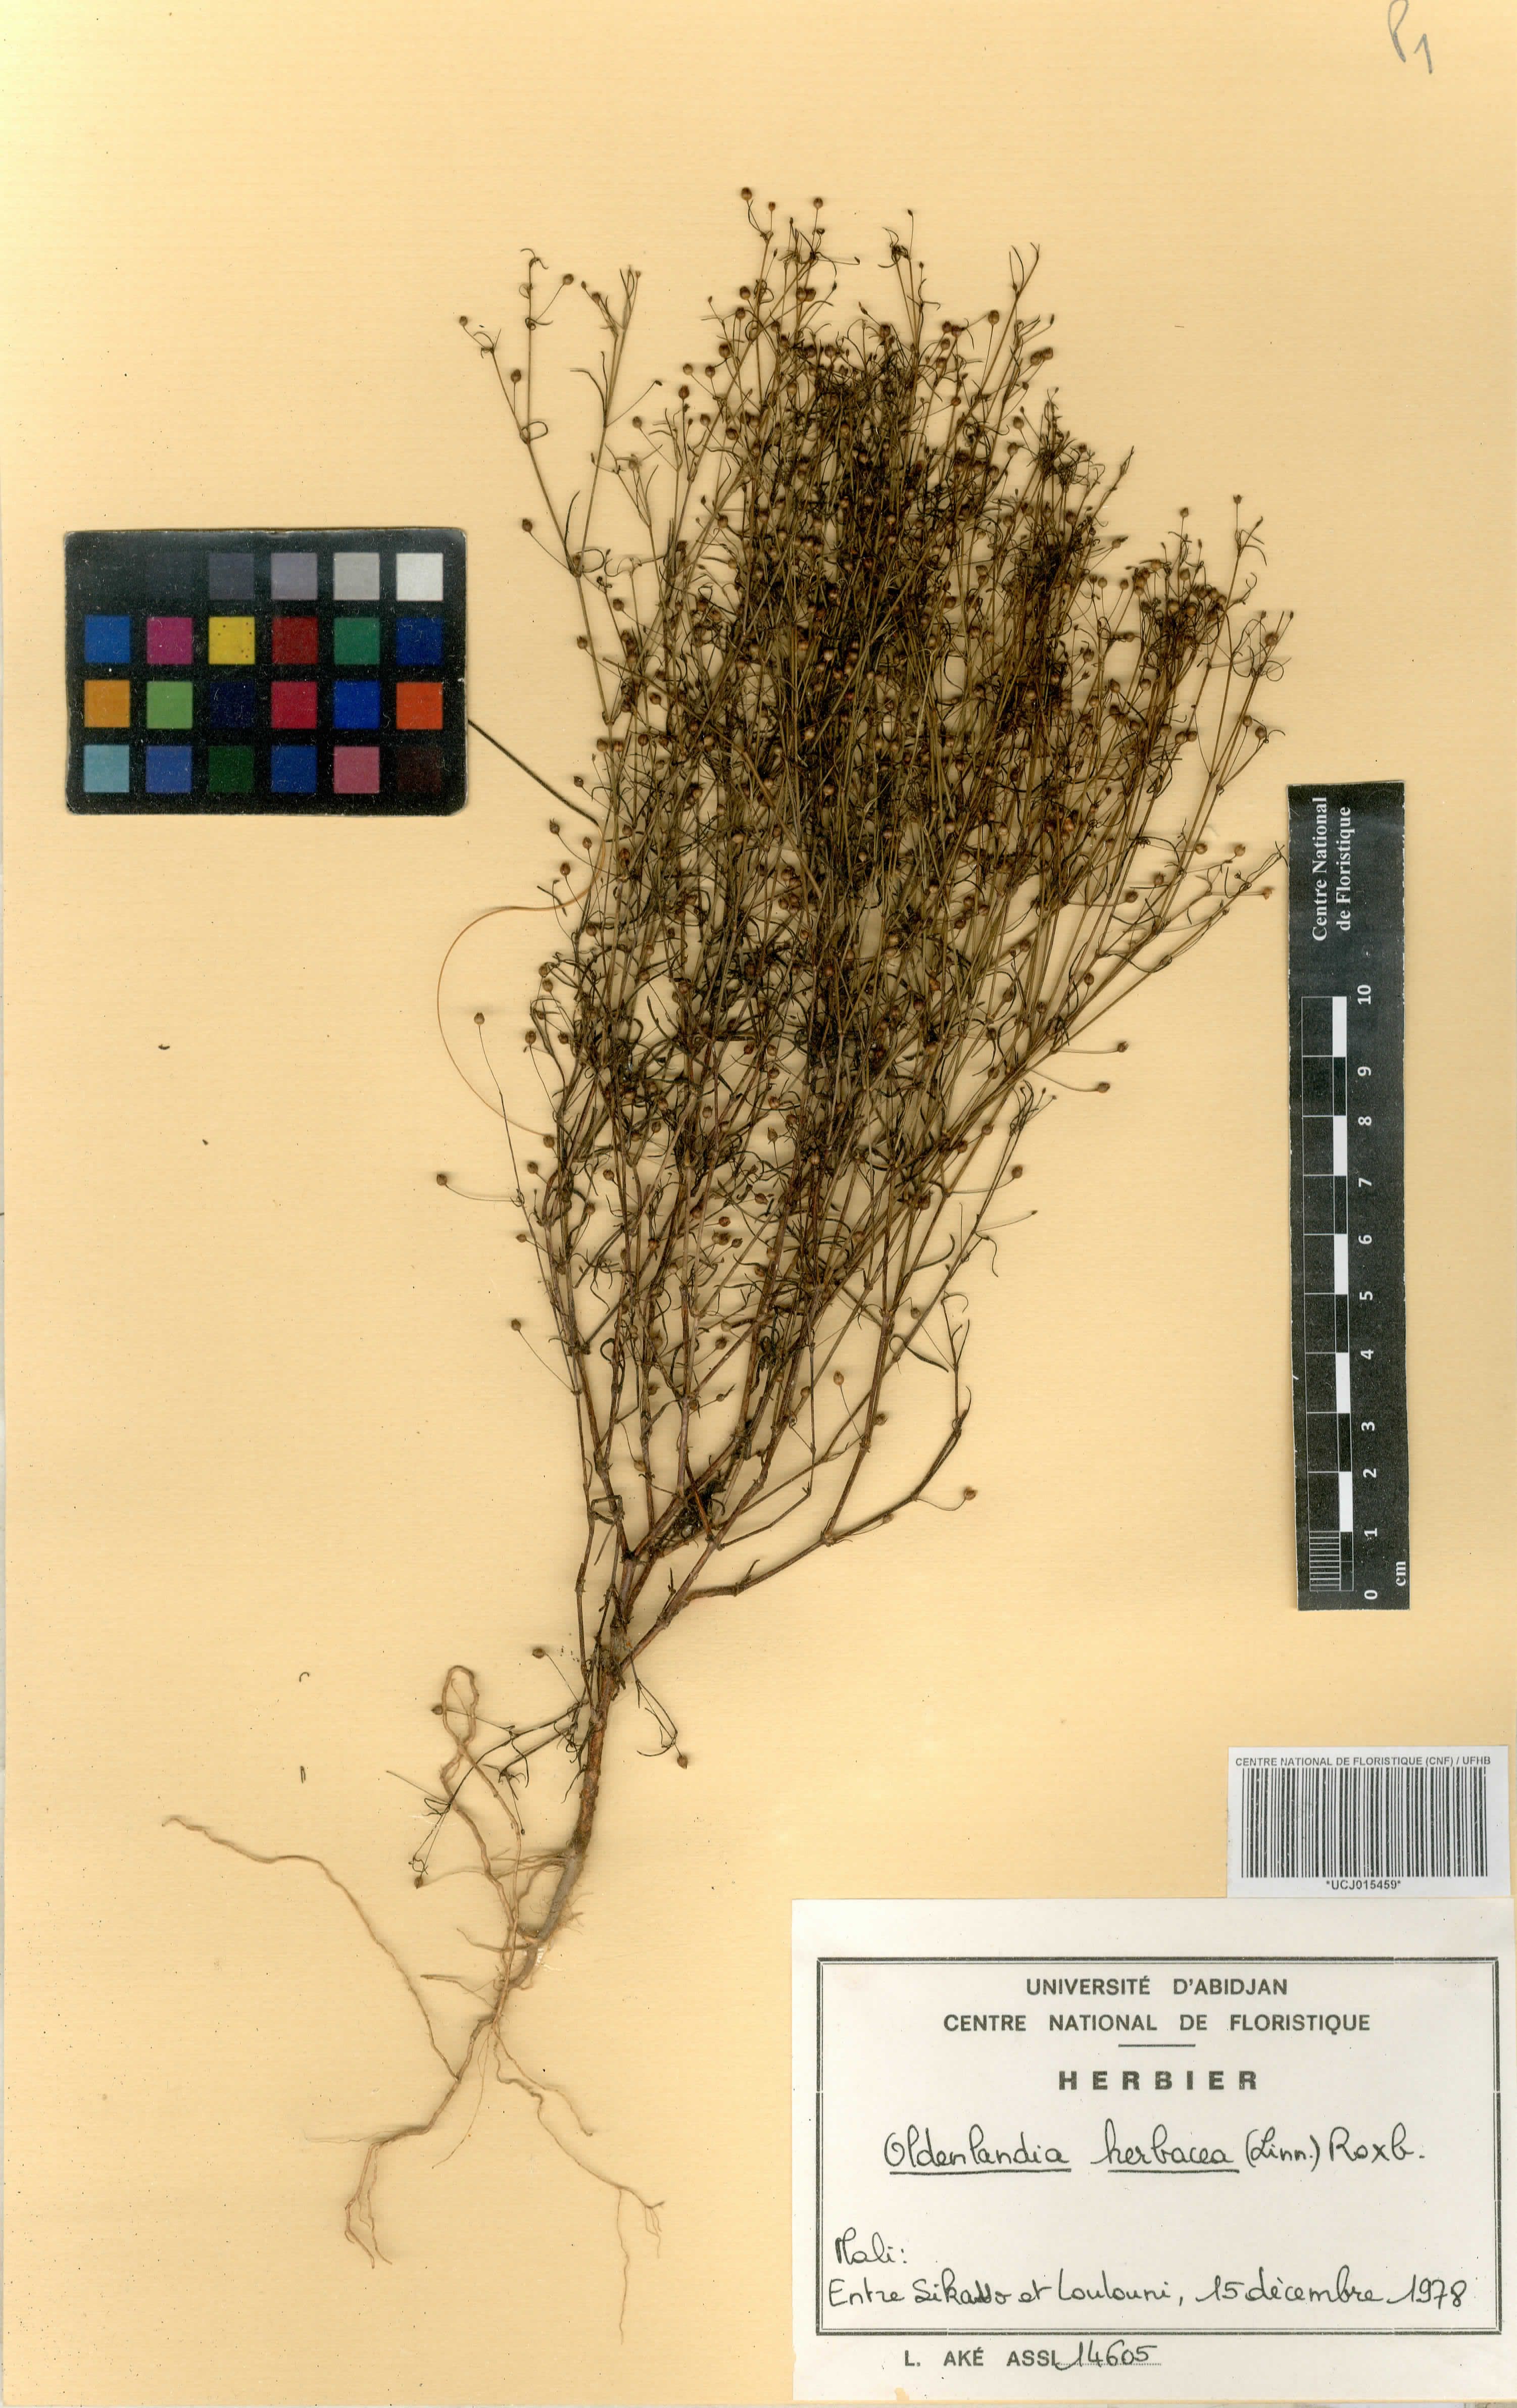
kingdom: Plantae
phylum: Tracheophyta
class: Magnoliopsida
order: Gentianales
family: Rubiaceae
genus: Oldenlandia
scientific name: Oldenlandia herbacea
